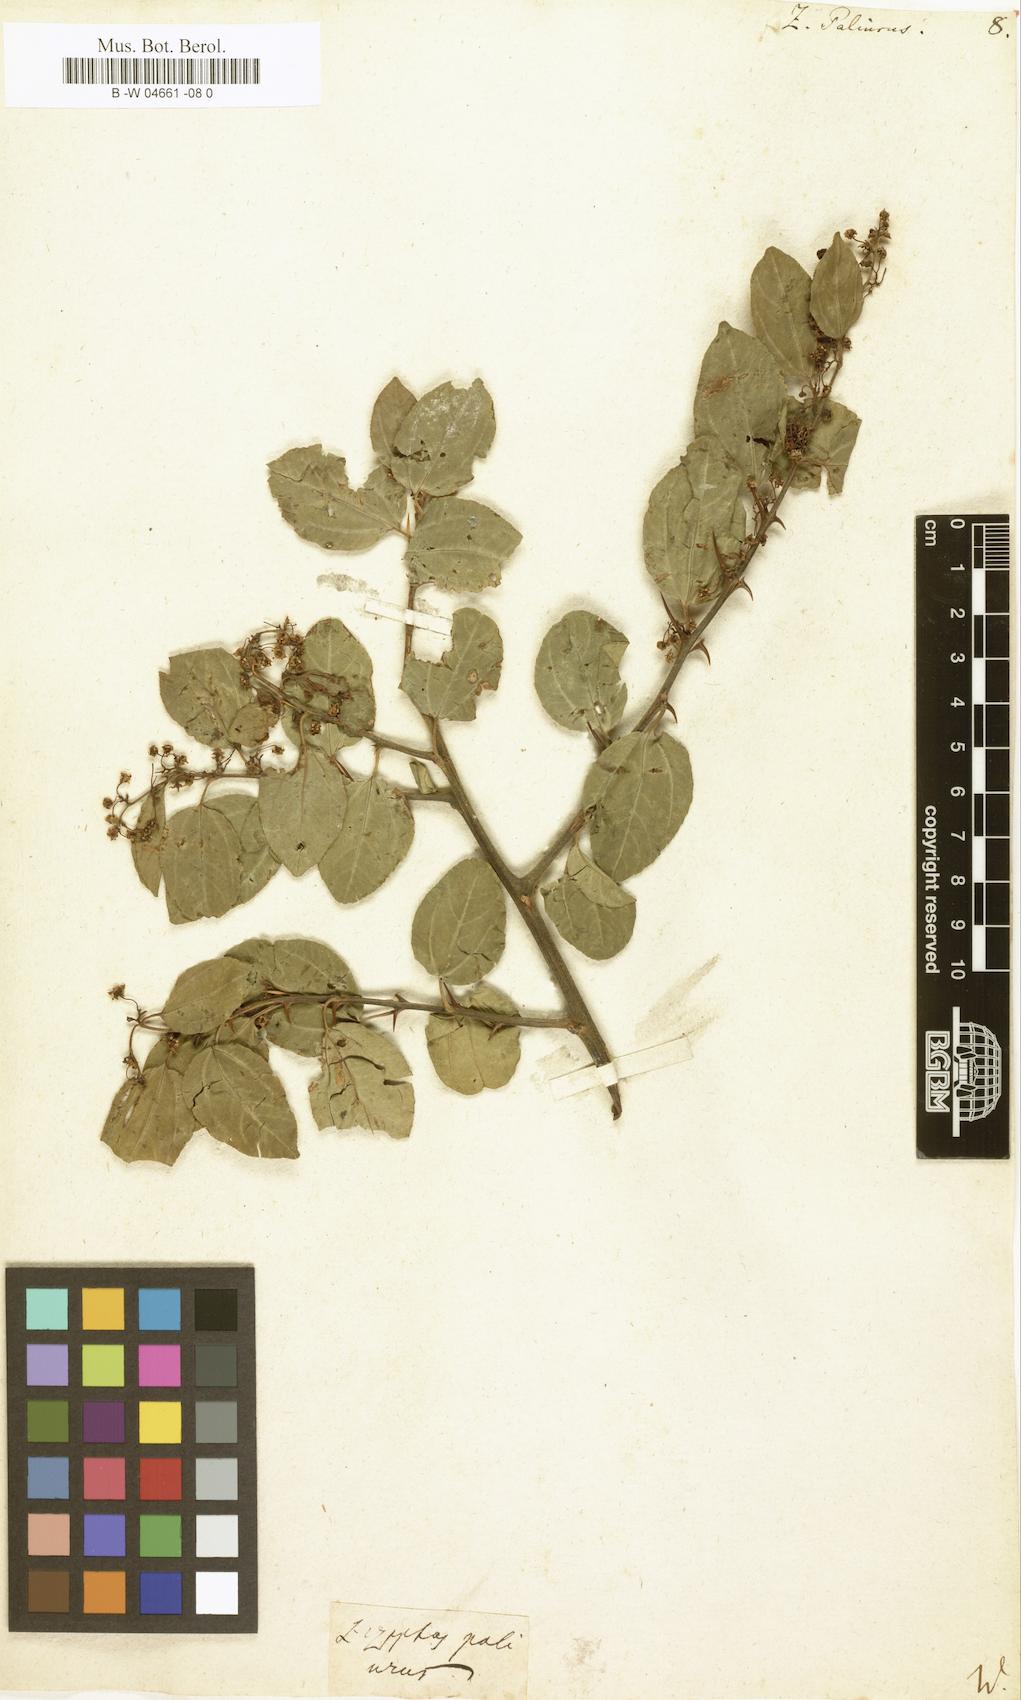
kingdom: Plantae
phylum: Tracheophyta
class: Magnoliopsida
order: Rosales
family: Rhamnaceae
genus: Paliurus
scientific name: Paliurus spina-christi
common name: Jeruselem thorn
